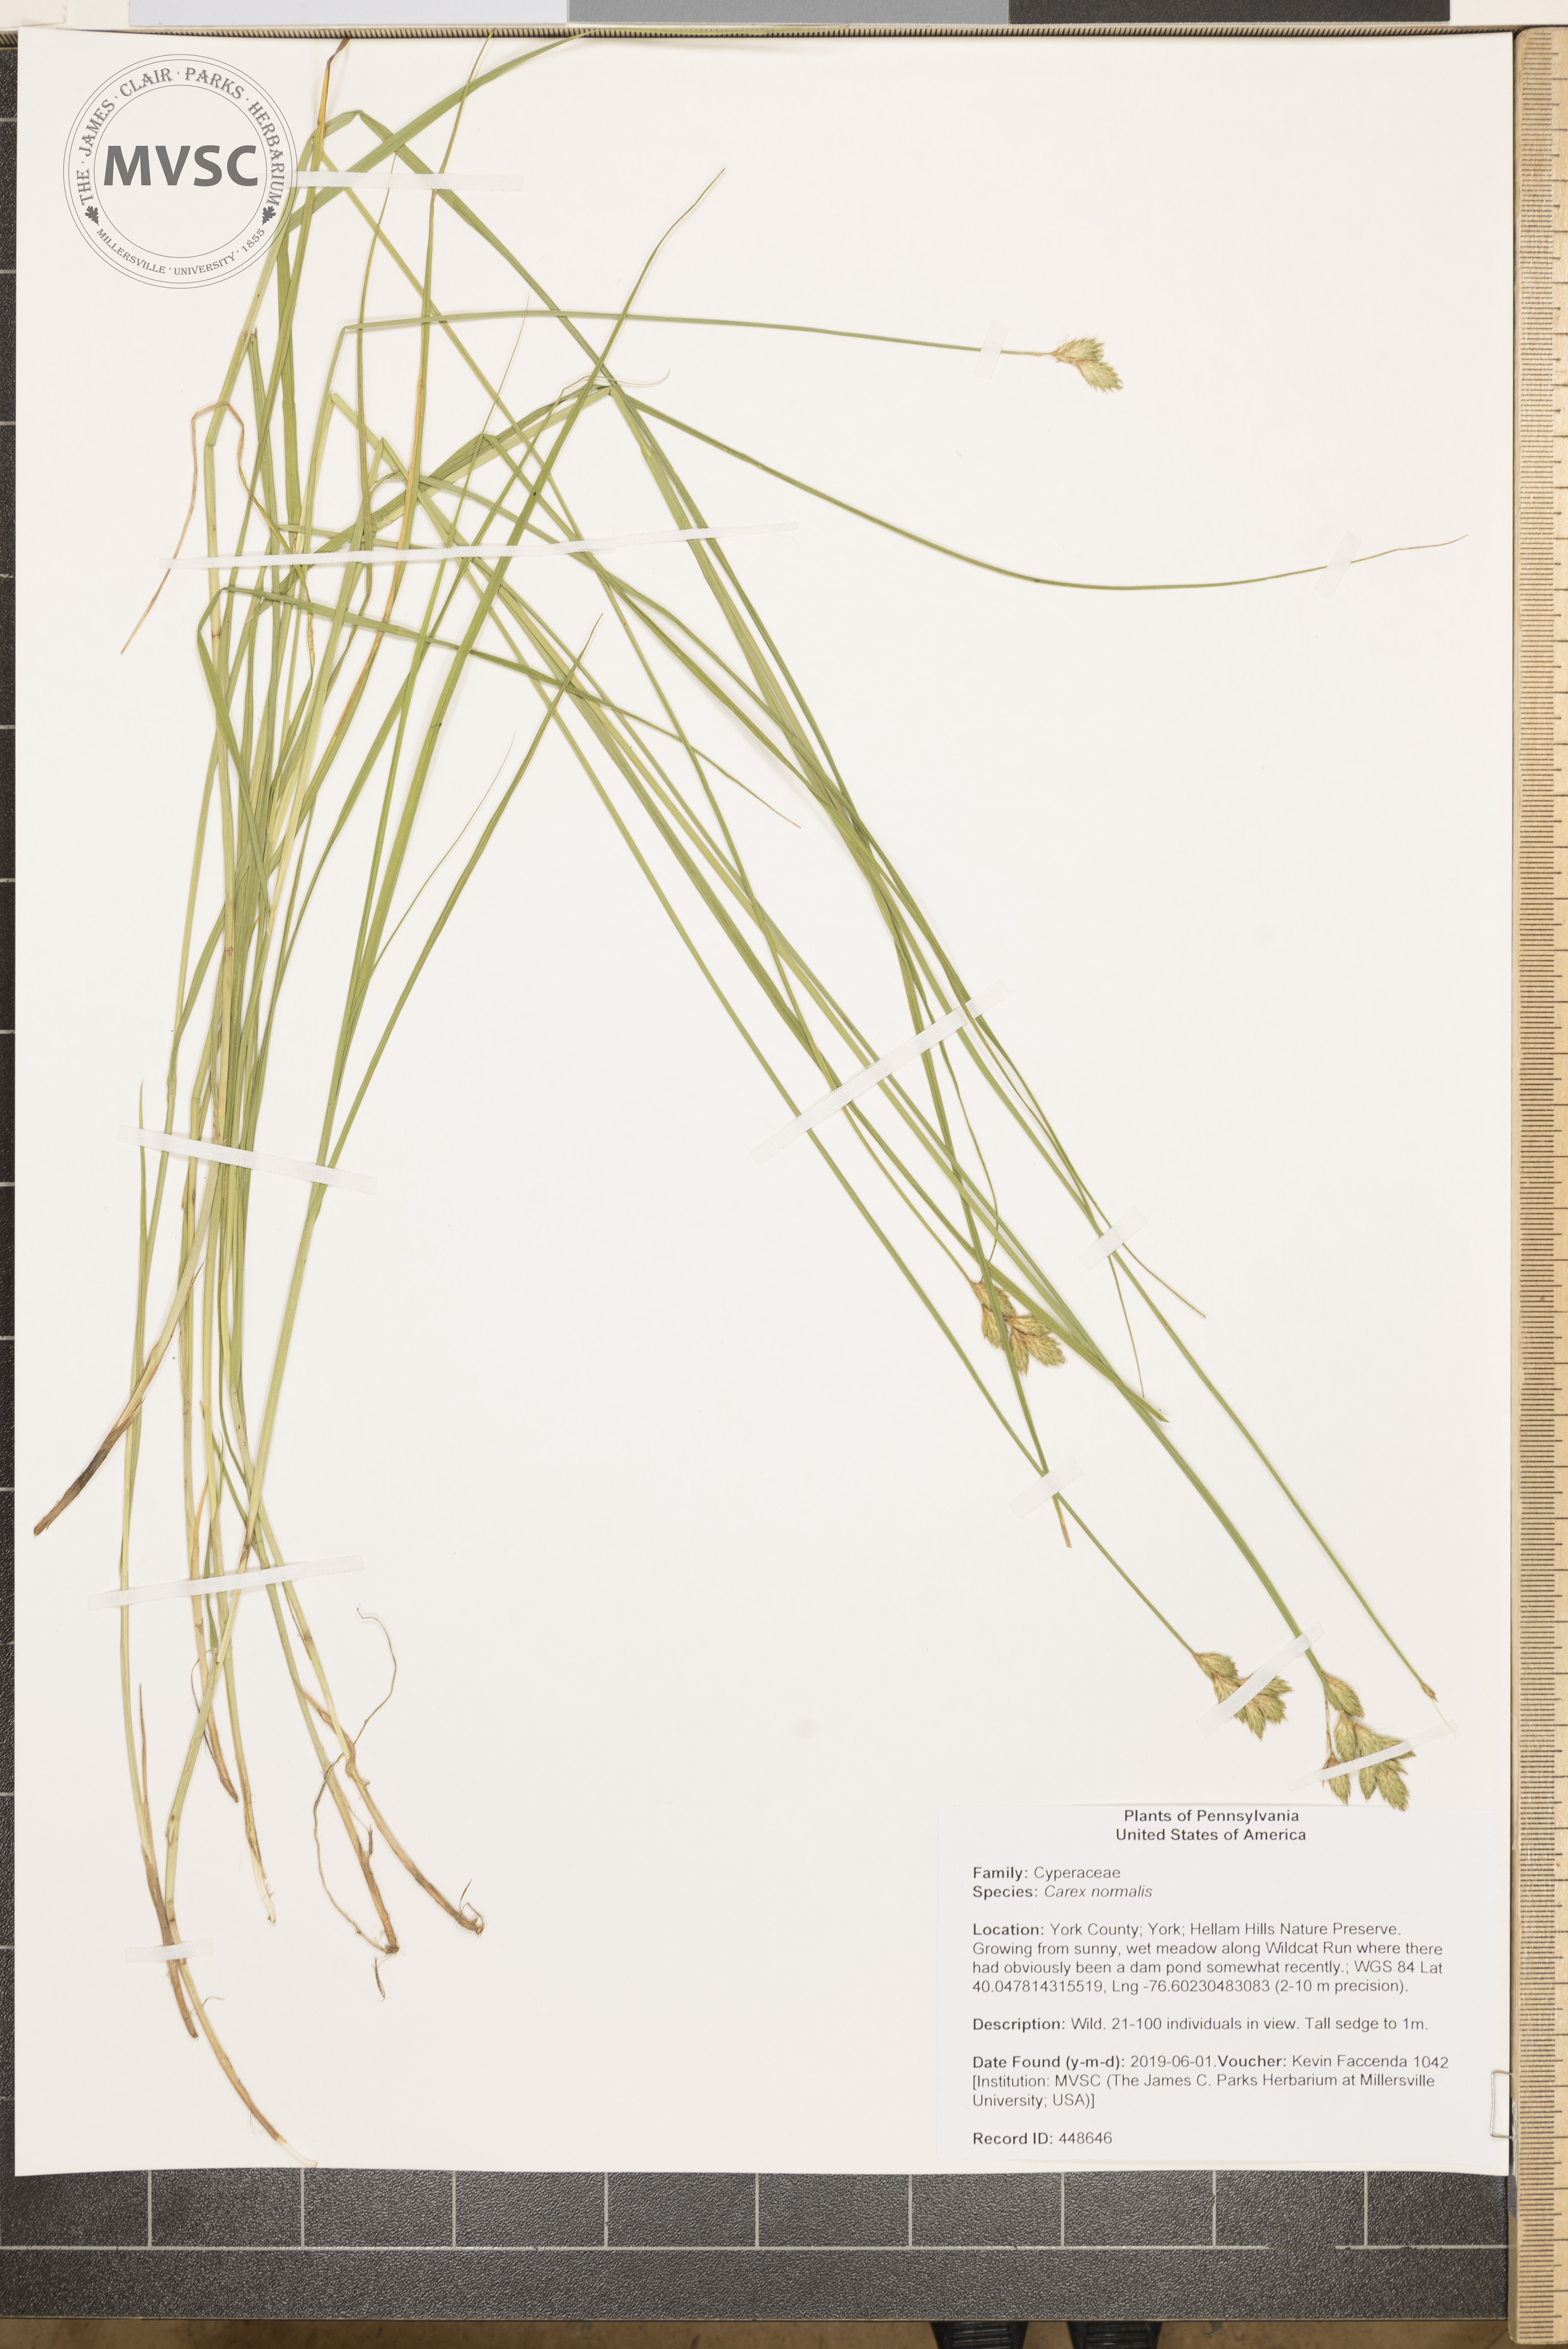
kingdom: Plantae
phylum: Tracheophyta
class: Liliopsida
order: Poales
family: Cyperaceae
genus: Carex
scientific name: Carex normalis
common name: Greater straw sedge
